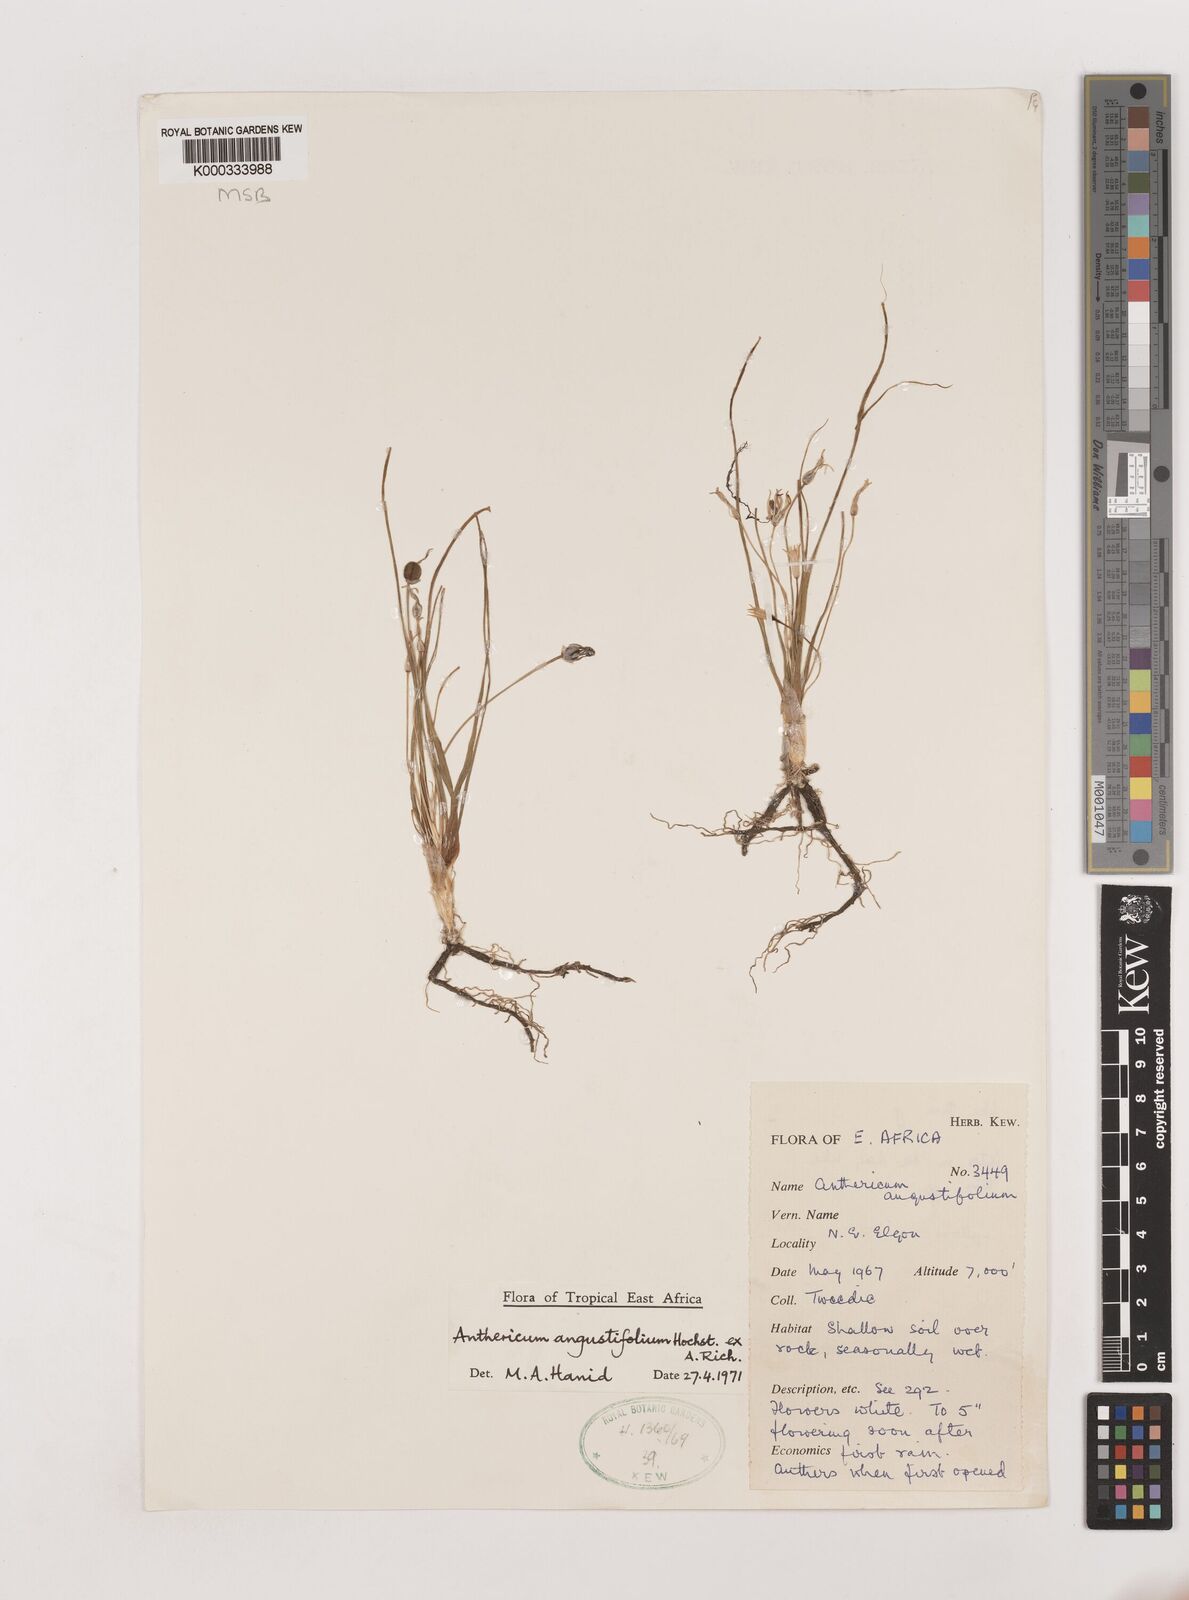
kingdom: Plantae
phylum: Tracheophyta
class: Liliopsida
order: Asparagales
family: Asparagaceae
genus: Anthericum
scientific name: Anthericum angustifolium
